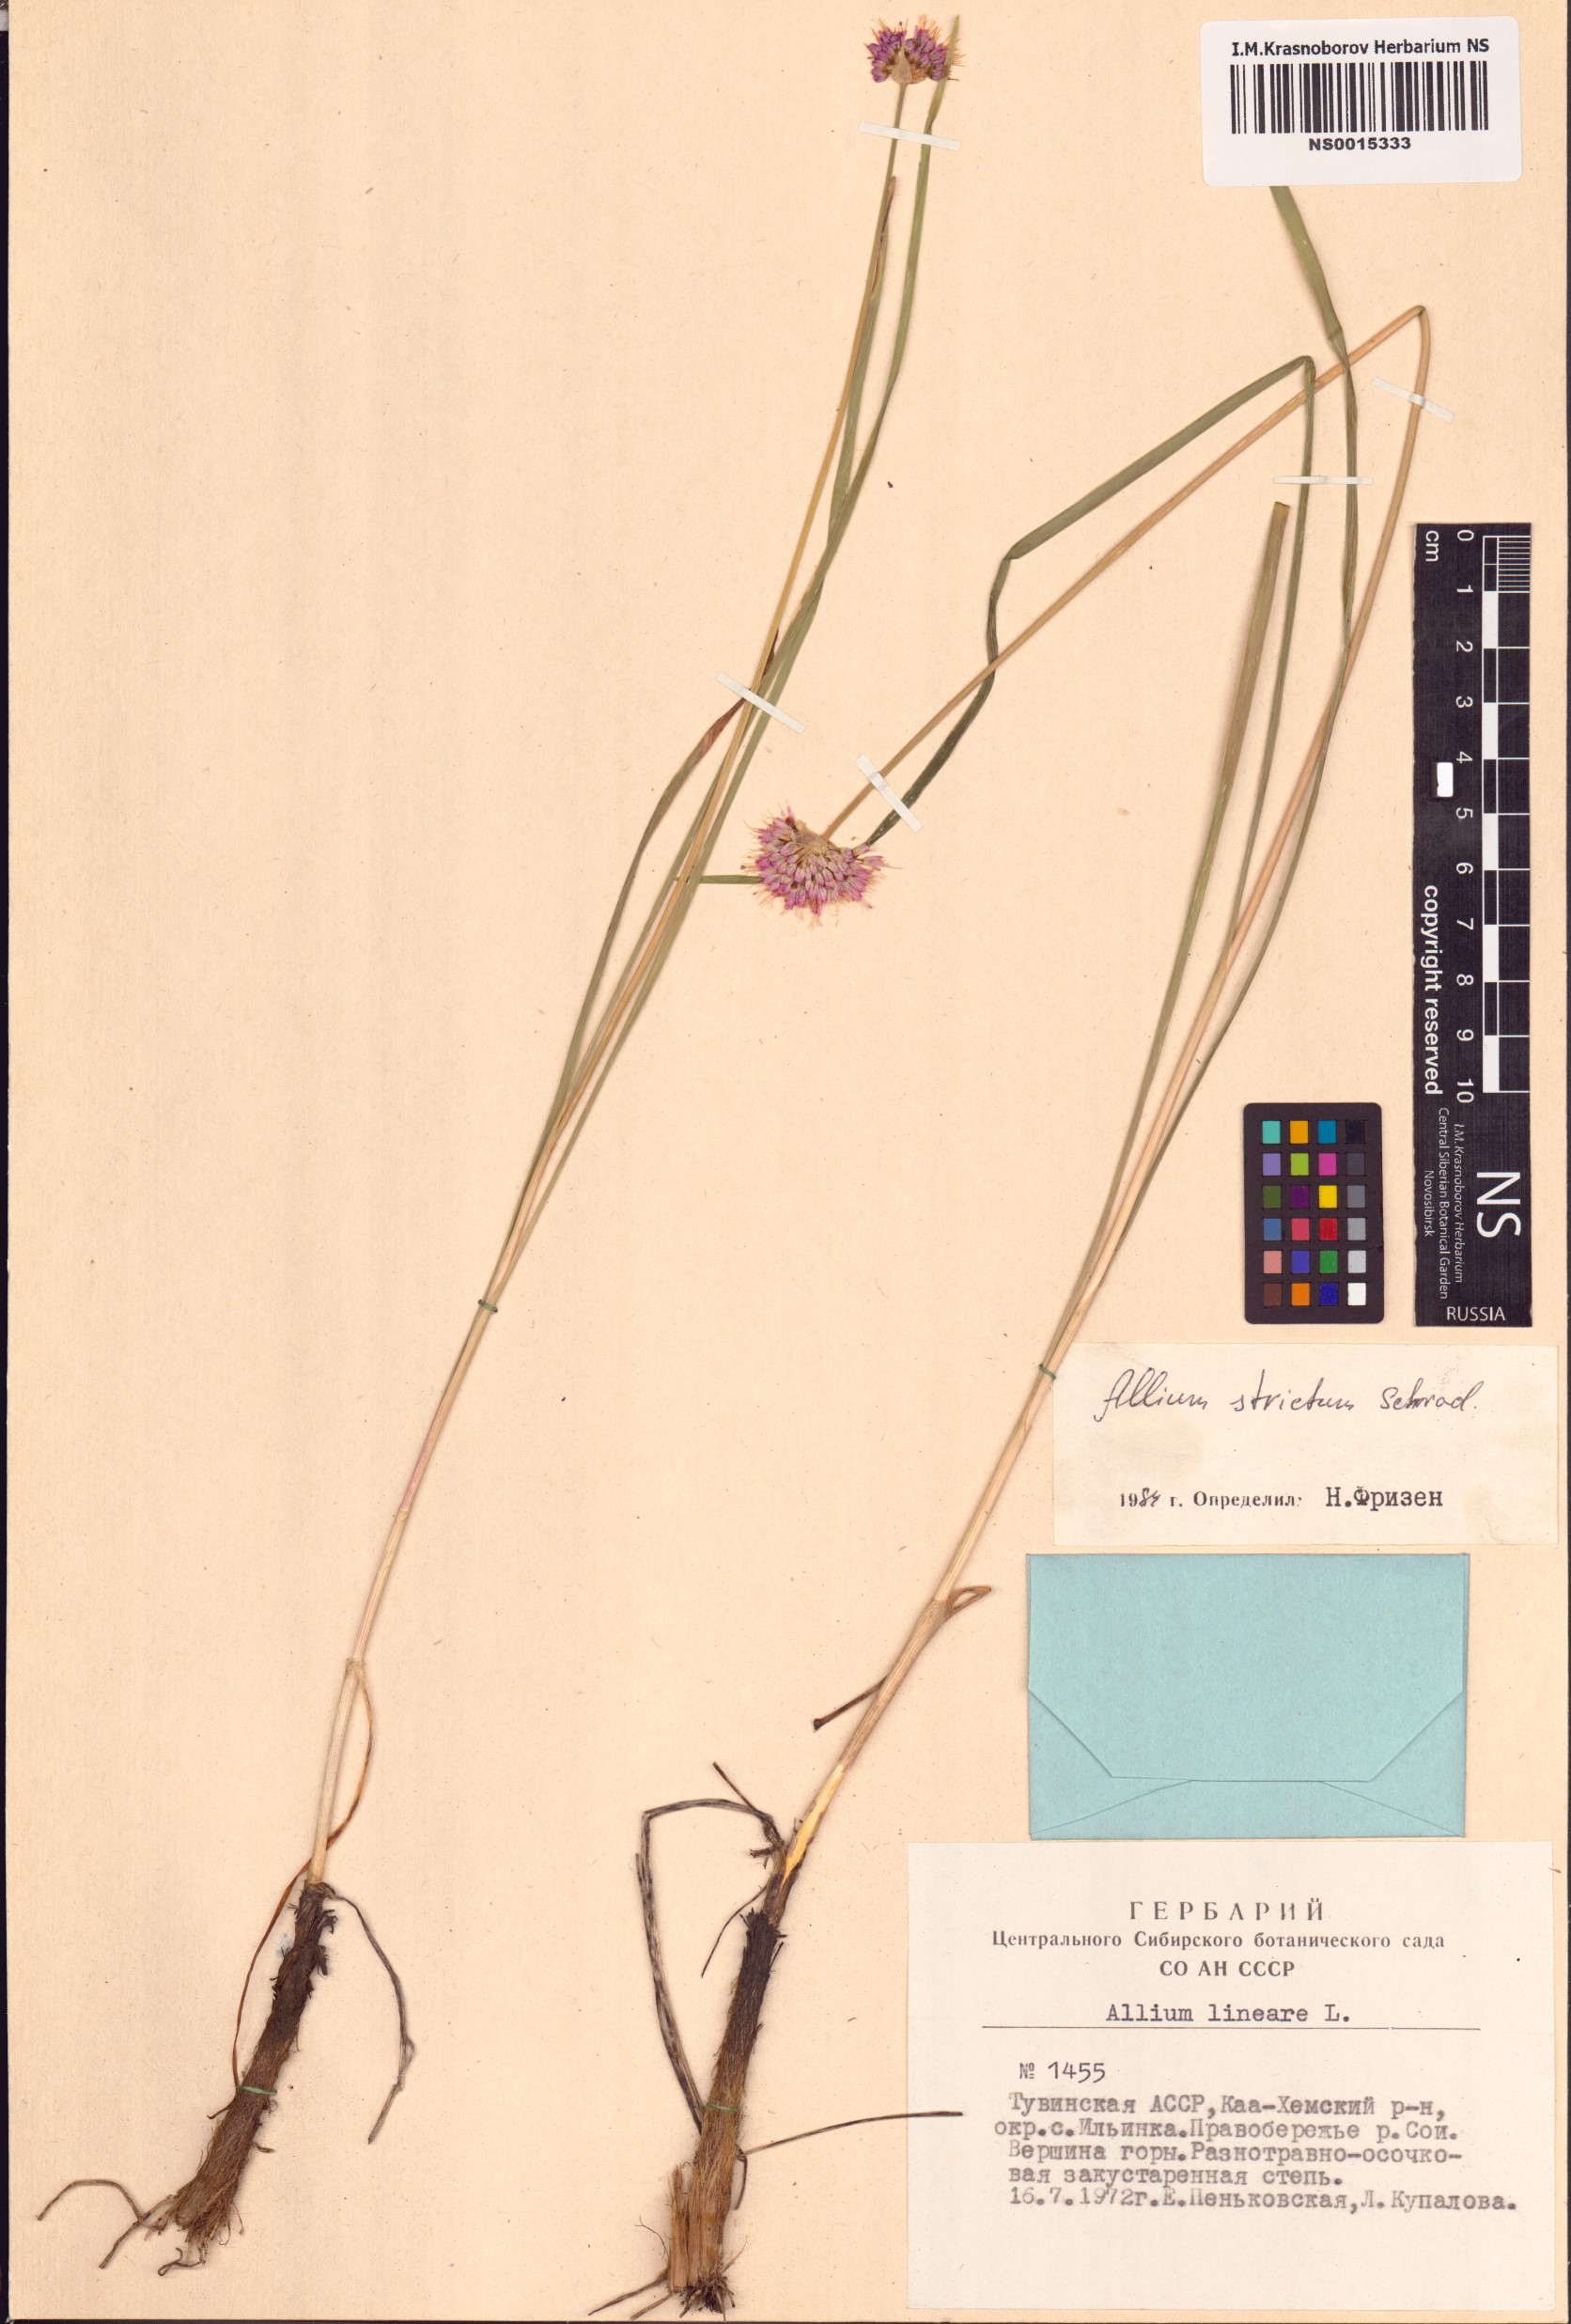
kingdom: Plantae
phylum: Tracheophyta
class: Liliopsida
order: Asparagales
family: Amaryllidaceae
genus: Allium
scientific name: Allium strictum
